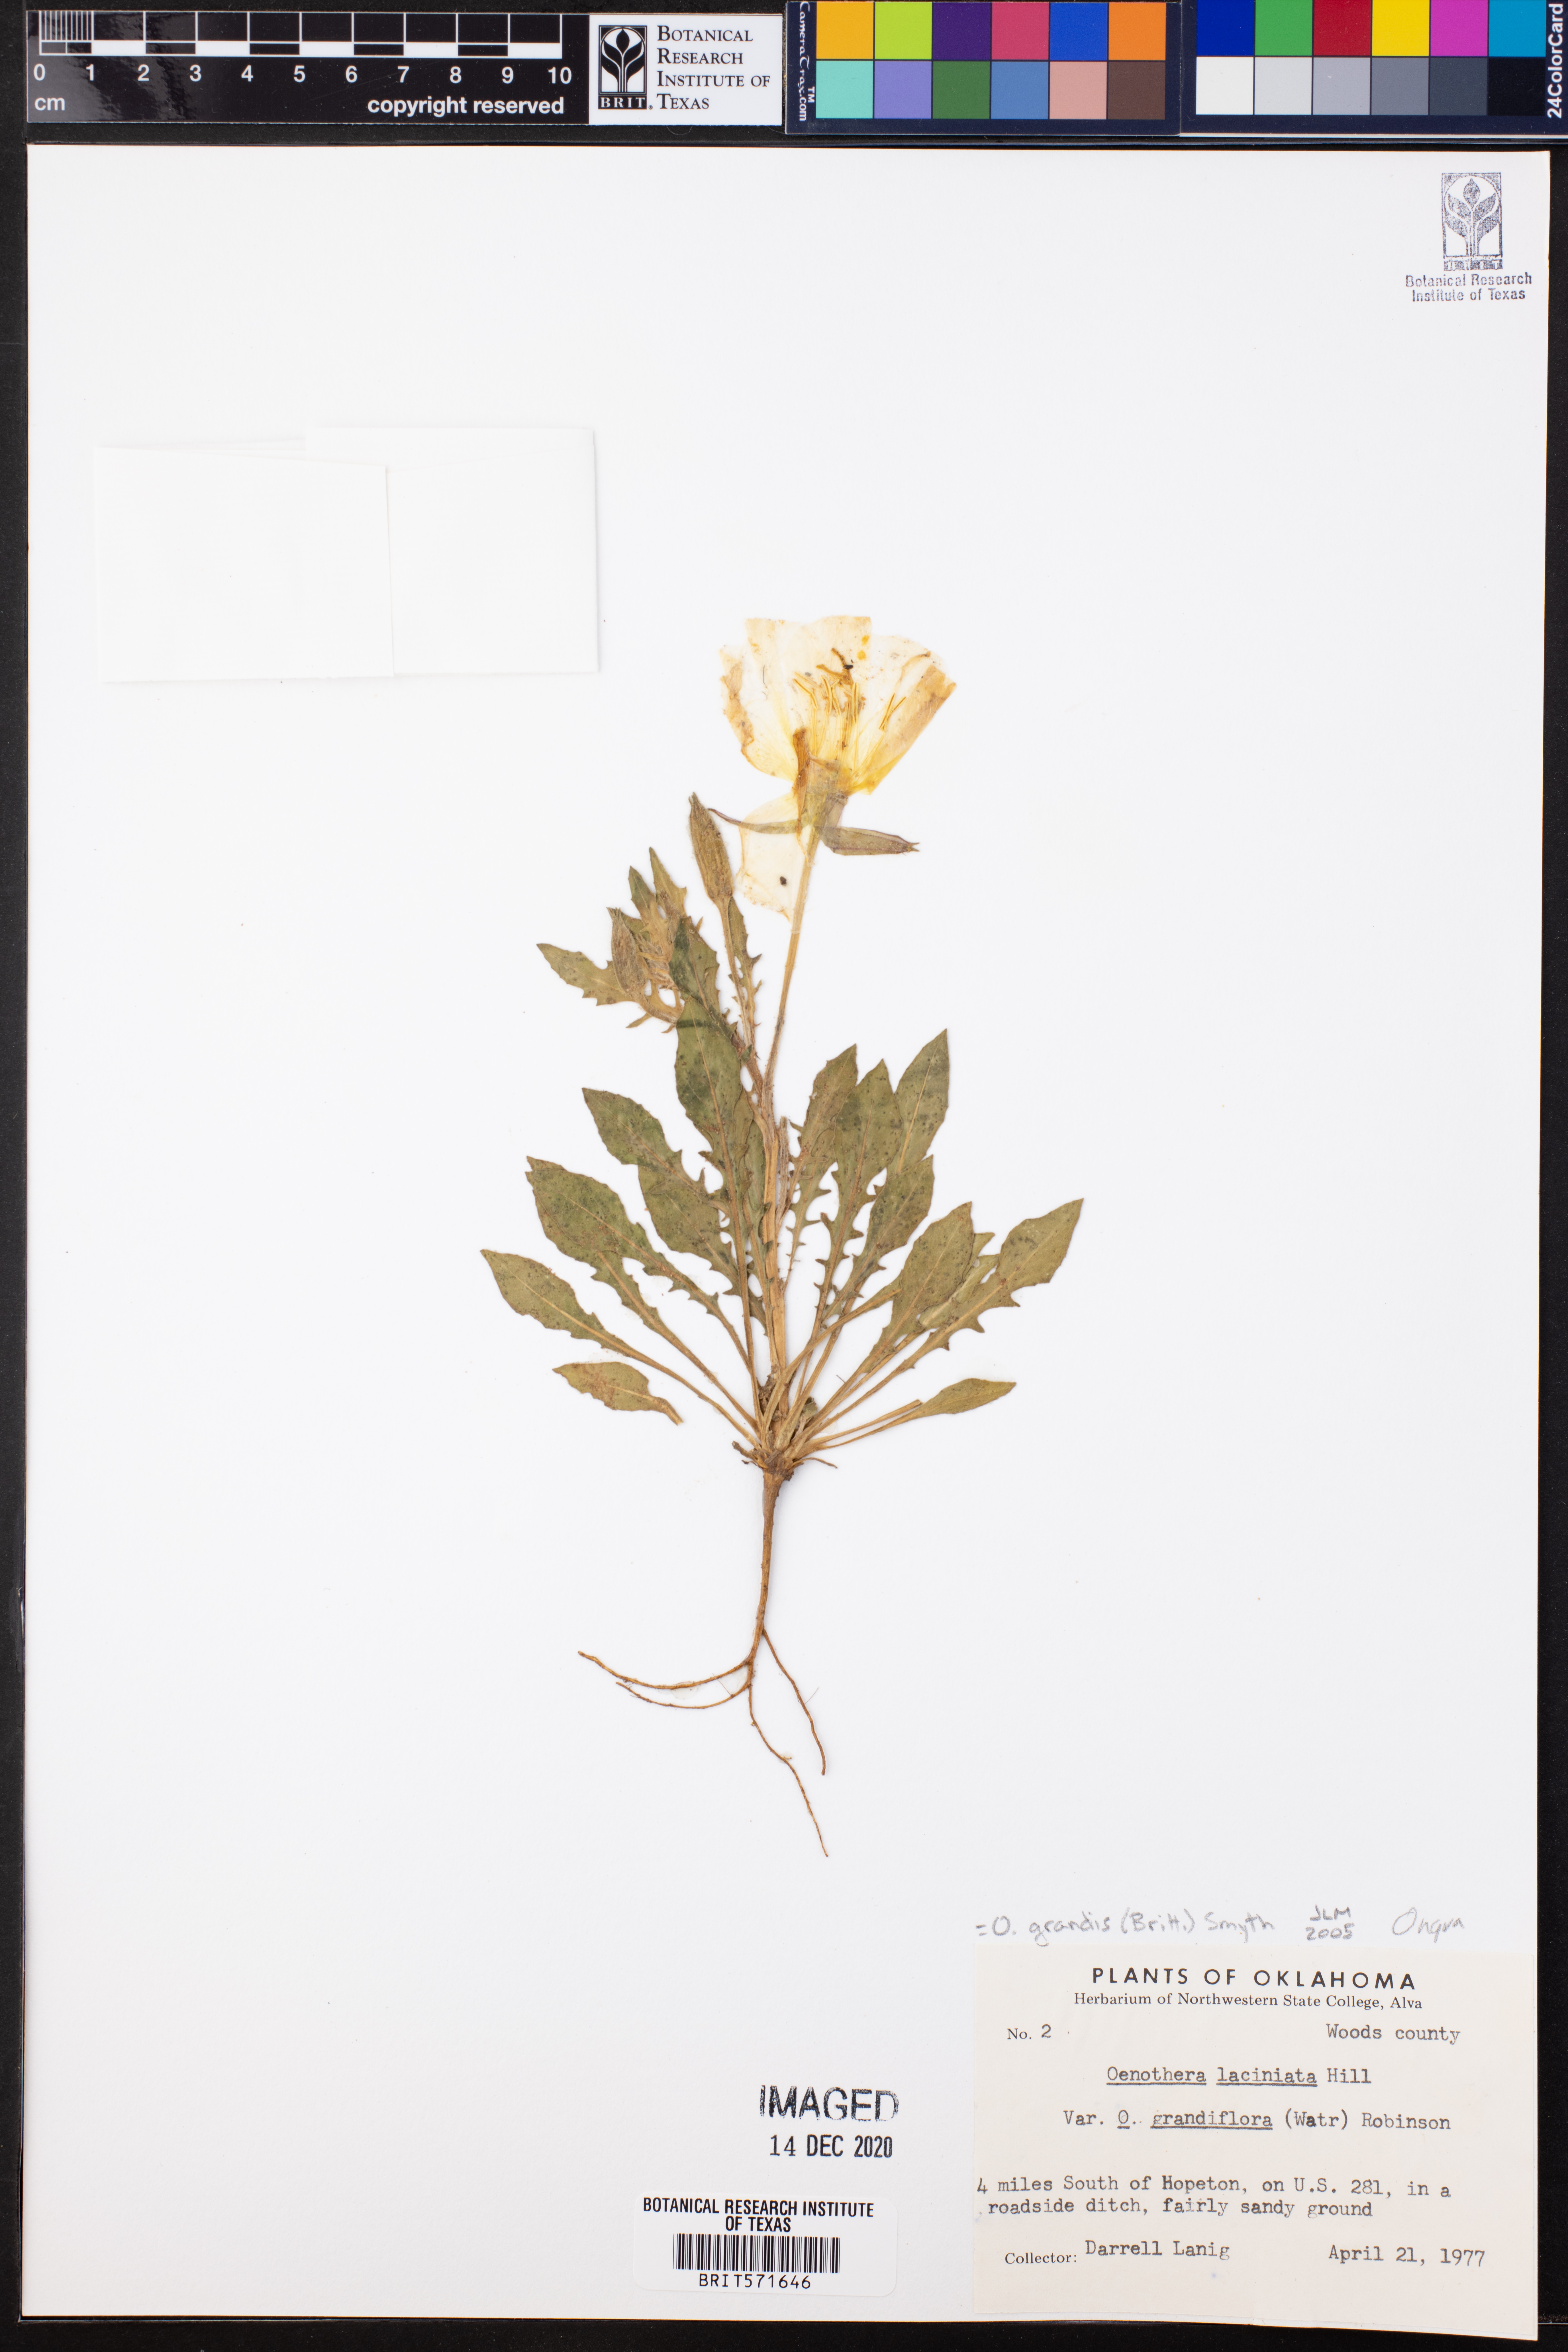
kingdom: Plantae
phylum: Tracheophyta
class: Magnoliopsida
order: Myrtales
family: Onagraceae
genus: Oenothera
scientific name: Oenothera grandis
